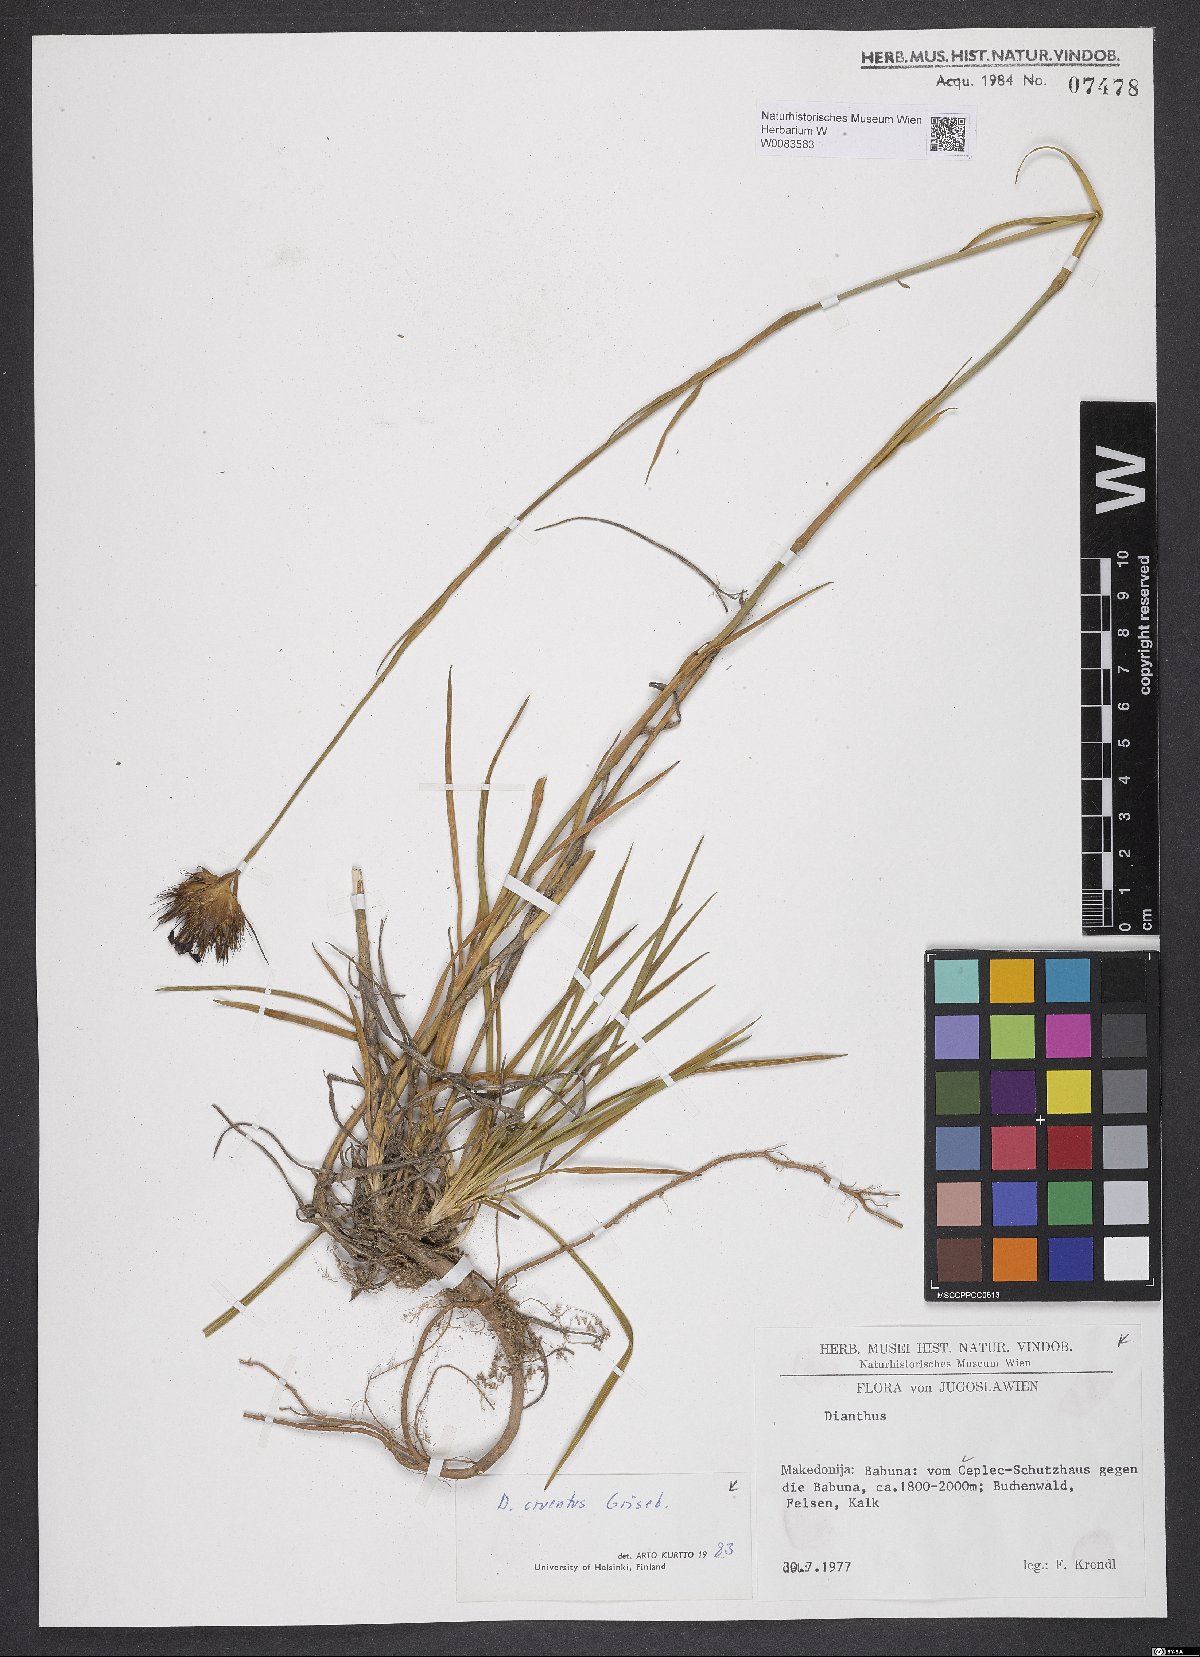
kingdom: Plantae
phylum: Tracheophyta
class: Magnoliopsida
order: Caryophyllales
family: Caryophyllaceae
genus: Dianthus
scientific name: Dianthus cruentus
